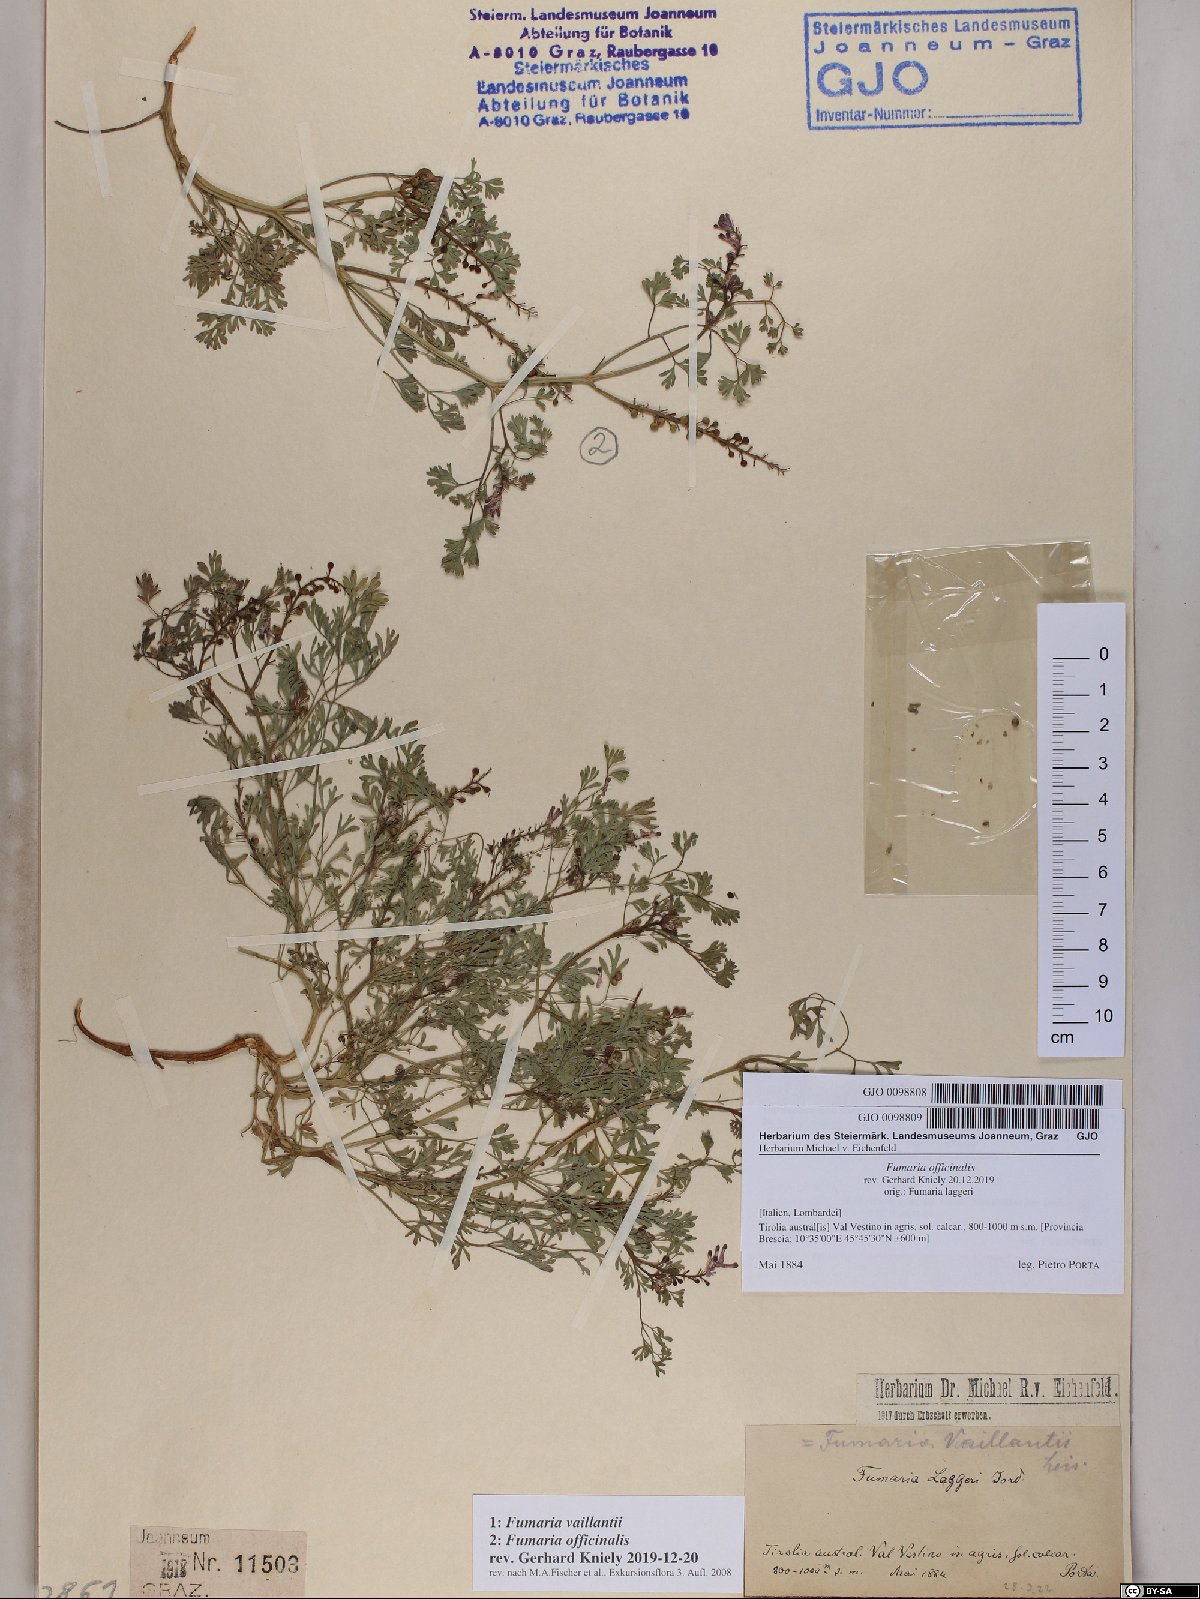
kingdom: Plantae
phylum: Tracheophyta
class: Magnoliopsida
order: Ranunculales
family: Papaveraceae
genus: Fumaria
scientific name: Fumaria vaillantii
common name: Few-flowered fumitory
